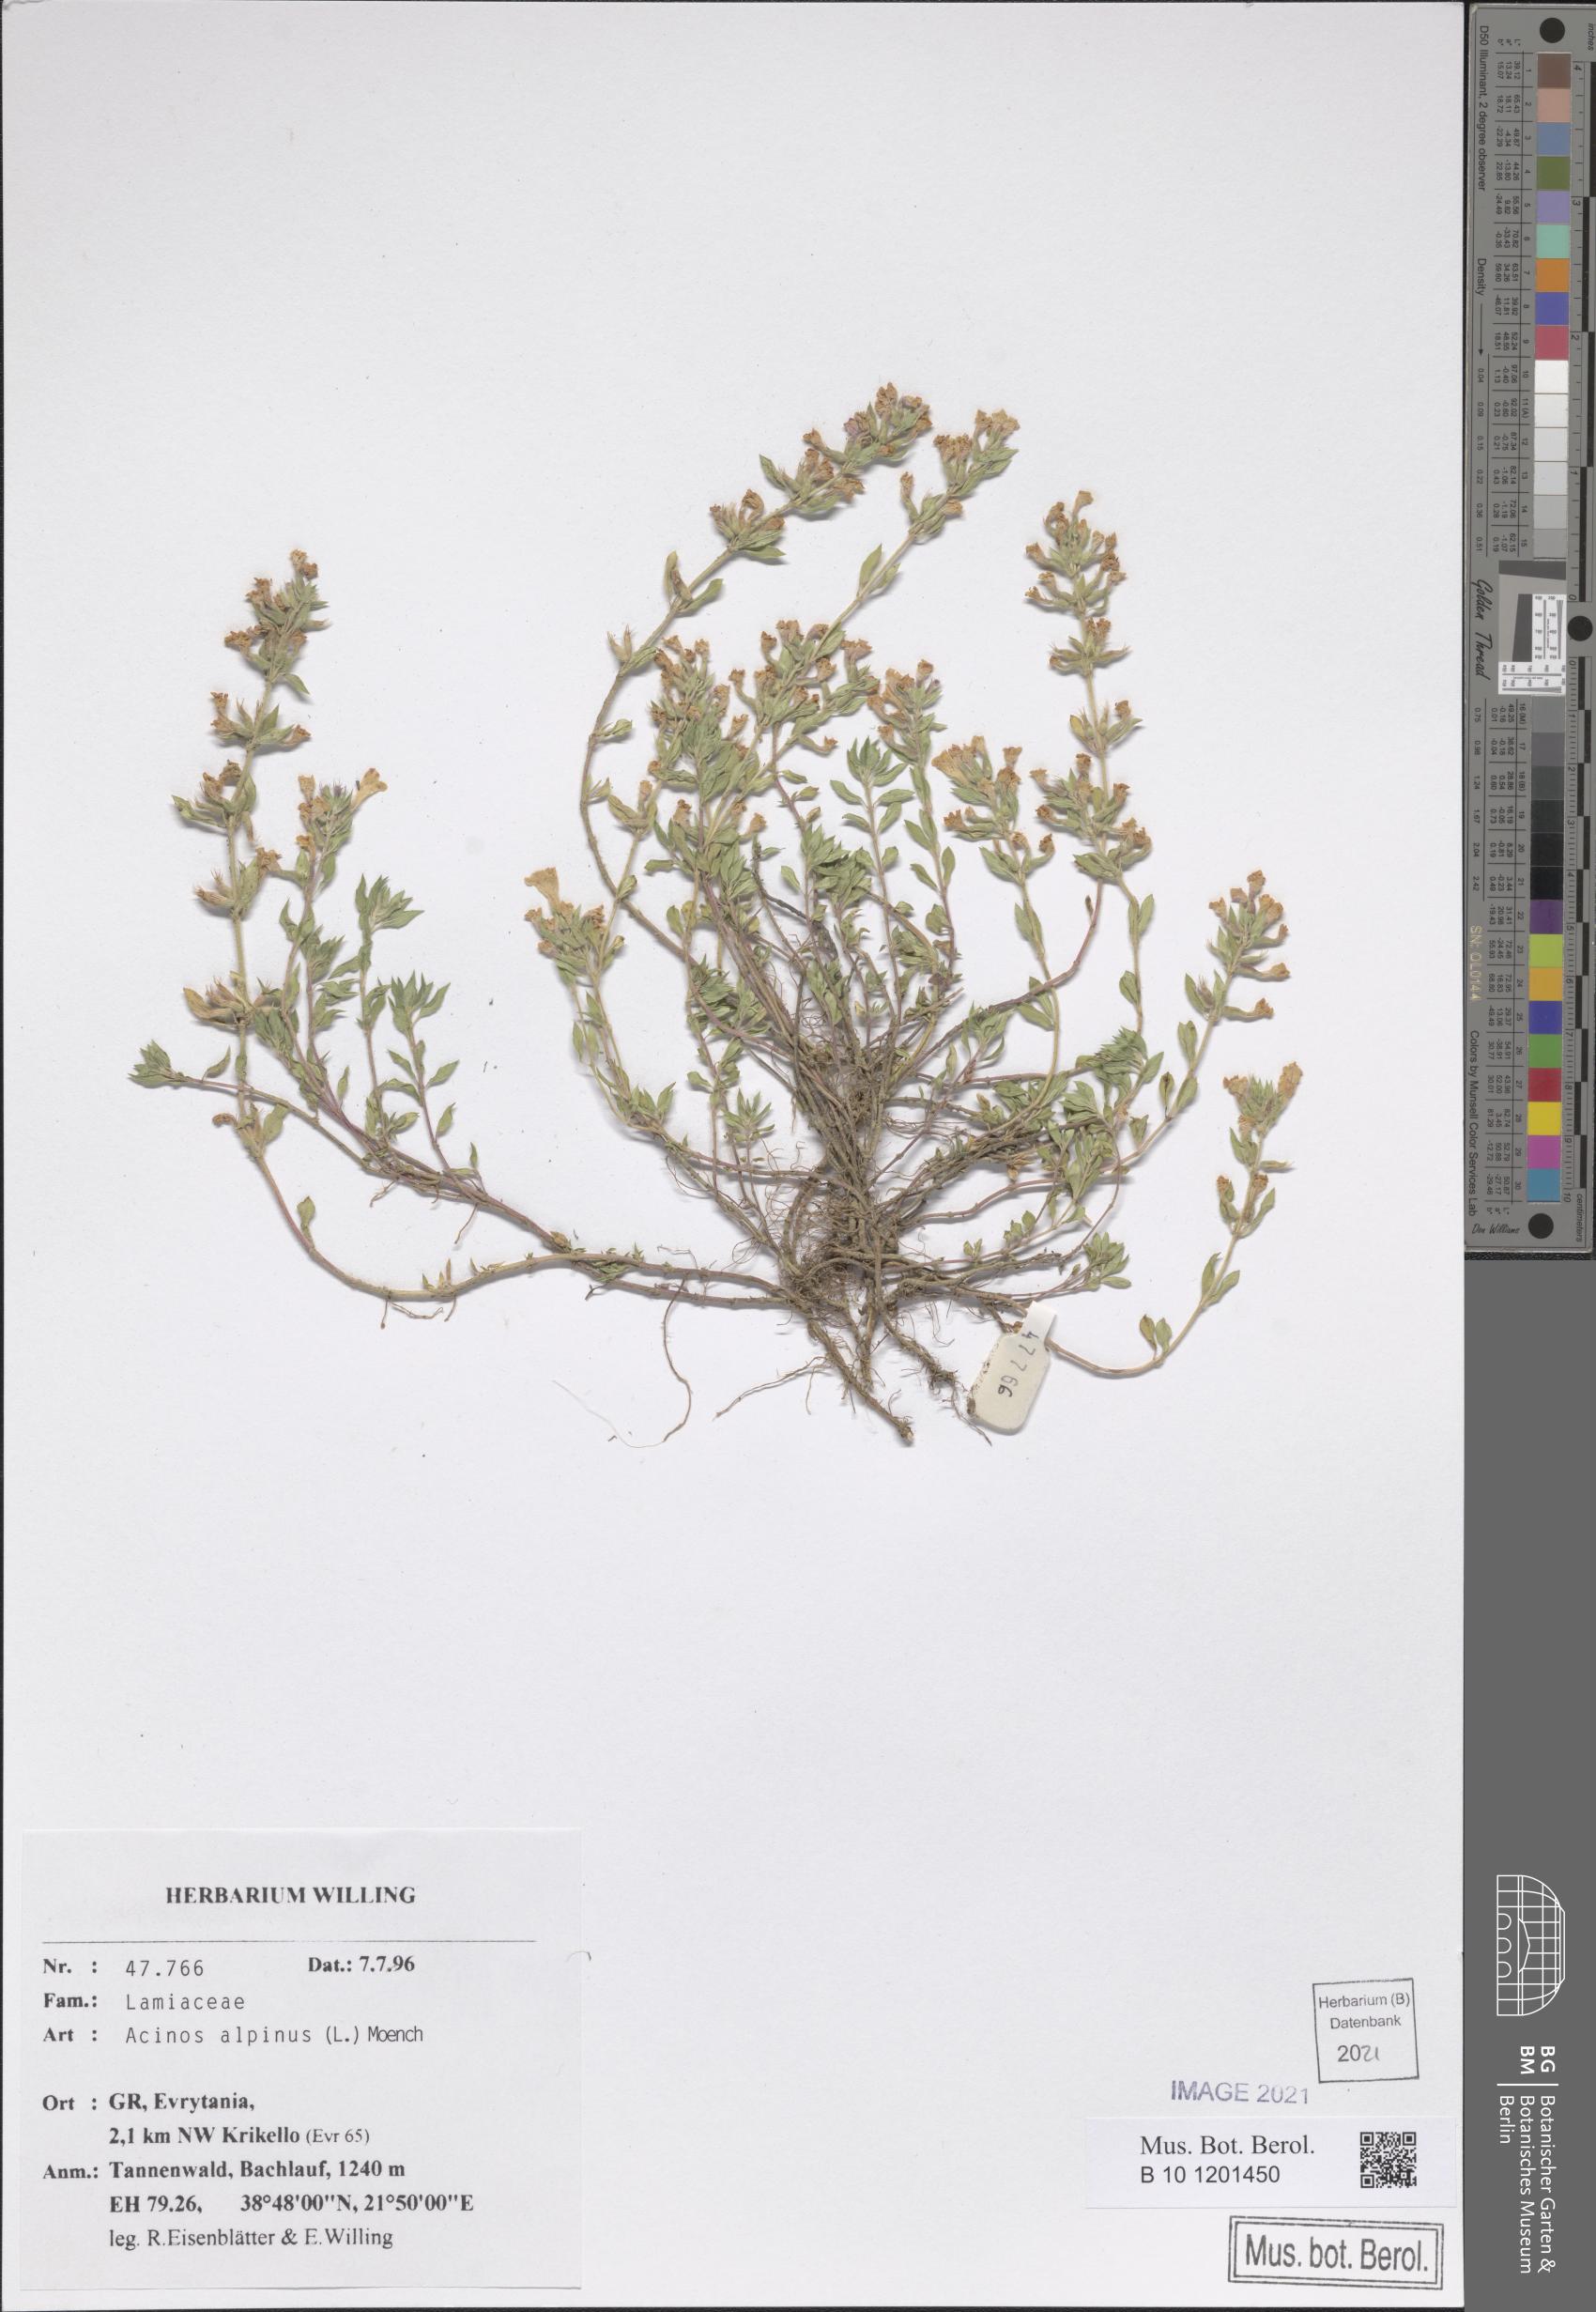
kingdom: Plantae
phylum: Tracheophyta
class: Magnoliopsida
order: Lamiales
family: Lamiaceae
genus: Clinopodium
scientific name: Clinopodium alpinum
